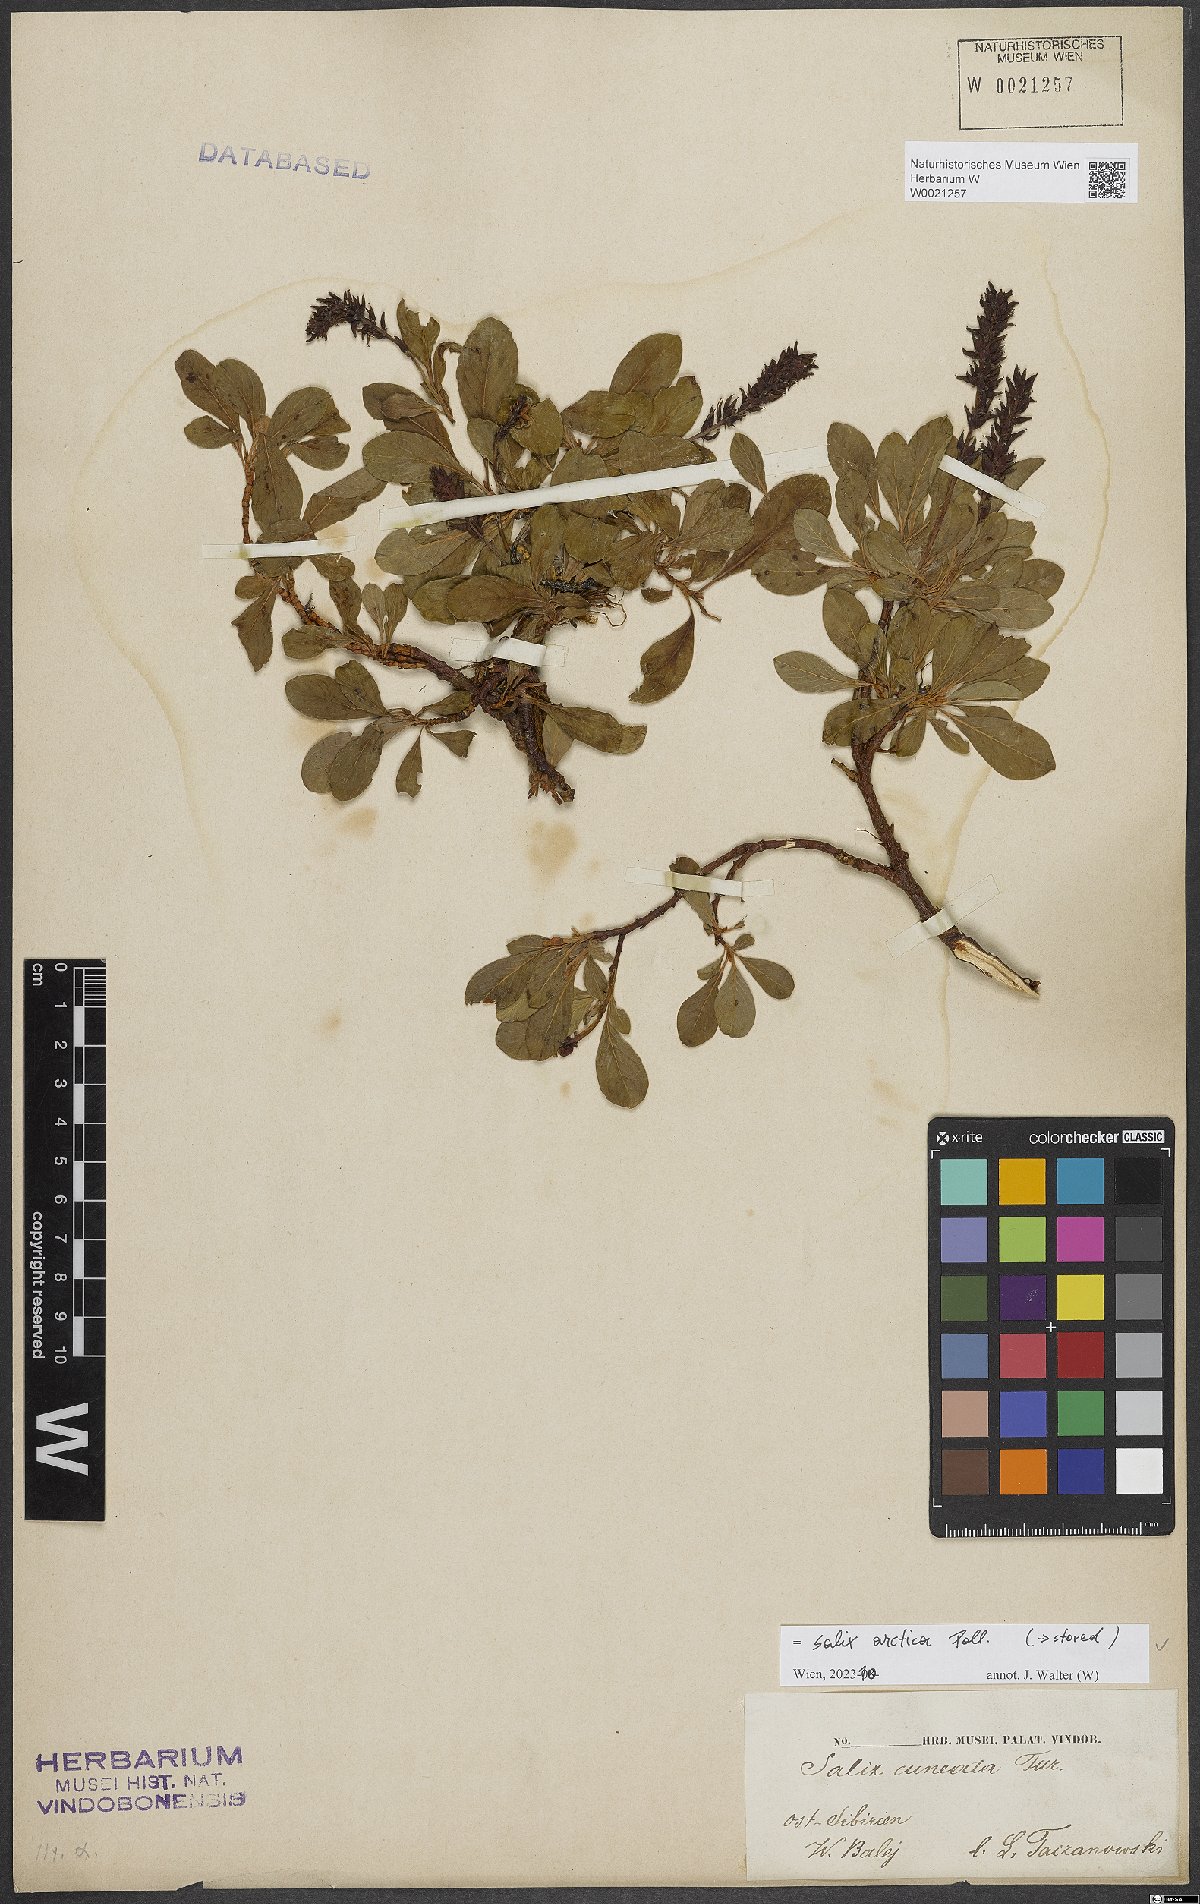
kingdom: Plantae
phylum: Tracheophyta
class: Magnoliopsida
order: Malpighiales
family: Salicaceae
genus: Salix
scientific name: Salix arctica
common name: Arctic willow
